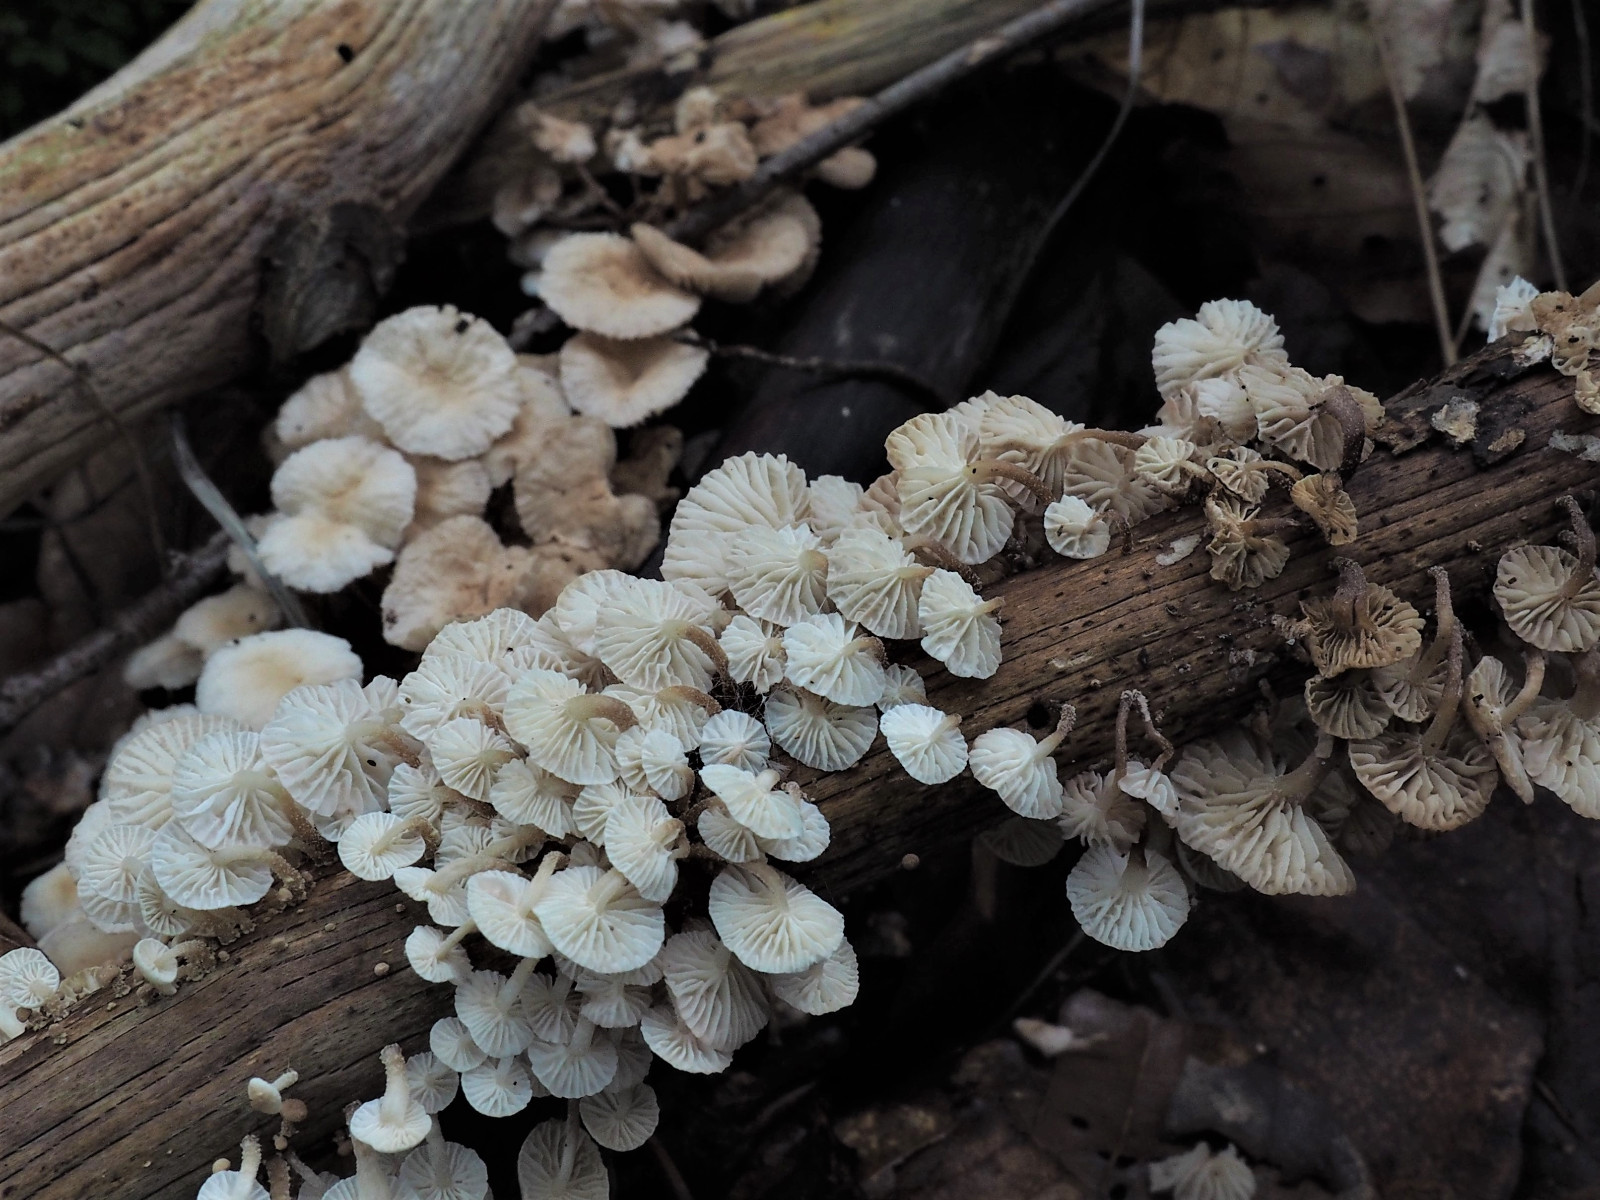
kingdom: Fungi
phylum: Basidiomycota
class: Agaricomycetes
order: Agaricales
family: Omphalotaceae
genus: Collybiopsis
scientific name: Collybiopsis ramealis
